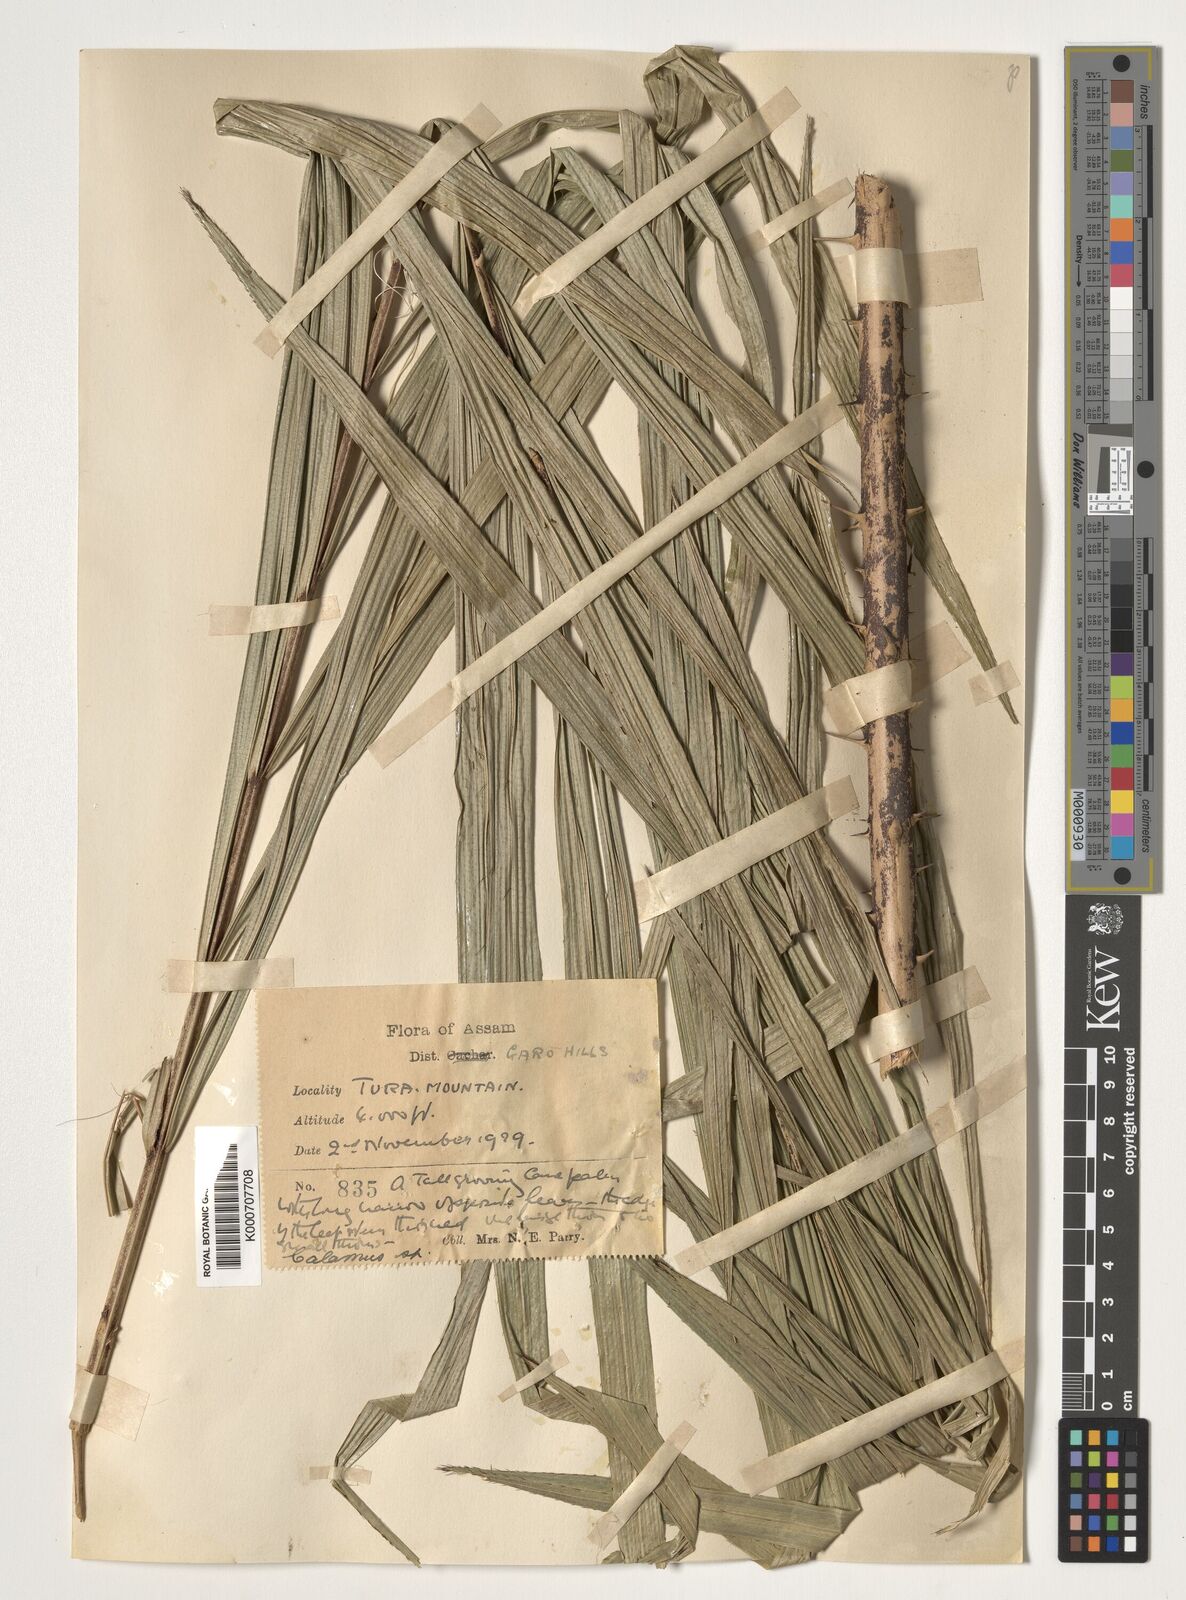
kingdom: Plantae
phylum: Tracheophyta
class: Liliopsida
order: Arecales
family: Arecaceae
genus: Calamus
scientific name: Calamus
